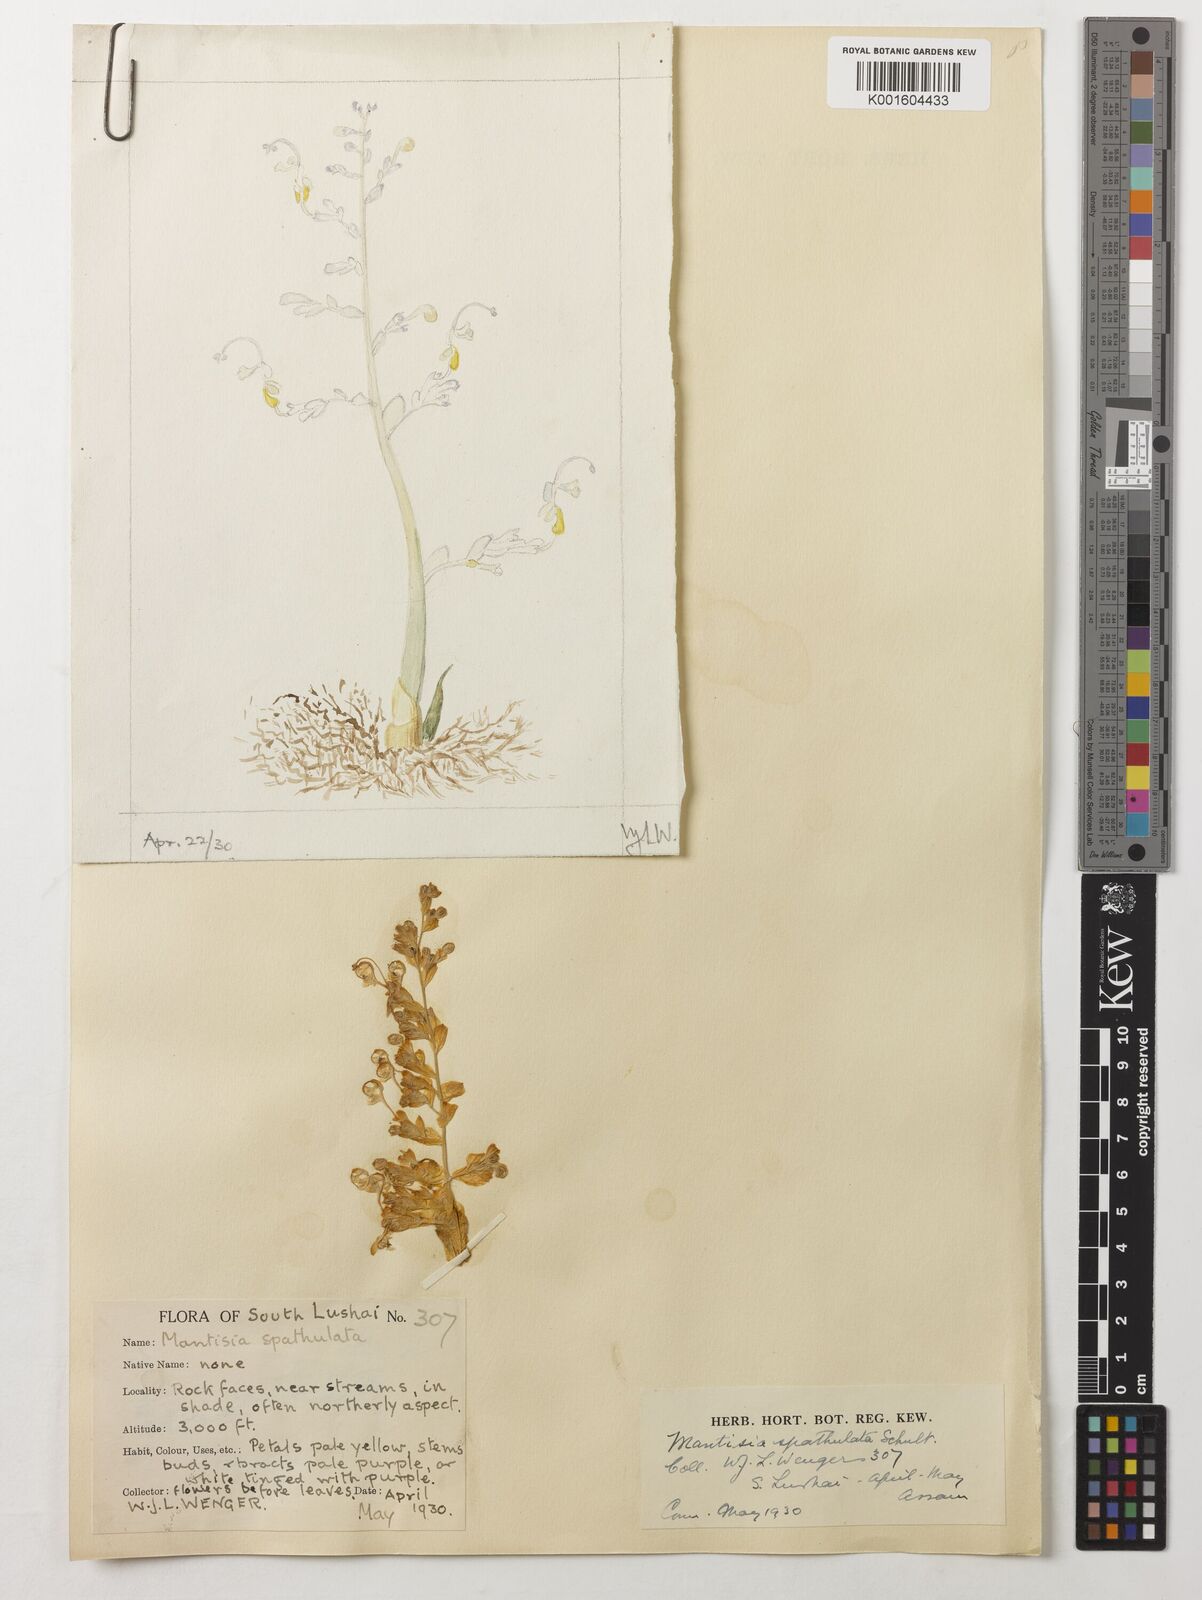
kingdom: Plantae
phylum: Tracheophyta
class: Liliopsida
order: Zingiberales
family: Zingiberaceae
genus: Globba
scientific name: Globba spathulata
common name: Dancing girl flower
